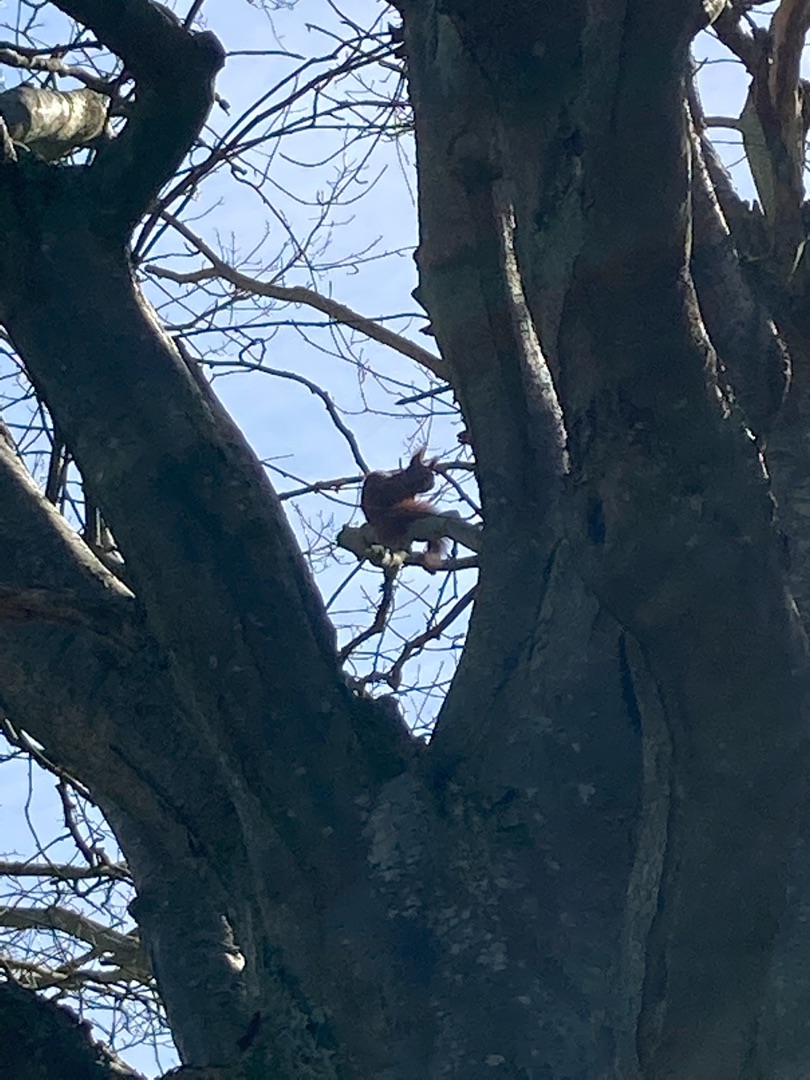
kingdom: Animalia
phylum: Chordata
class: Mammalia
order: Rodentia
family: Sciuridae
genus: Sciurus
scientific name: Sciurus vulgaris
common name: Egern
